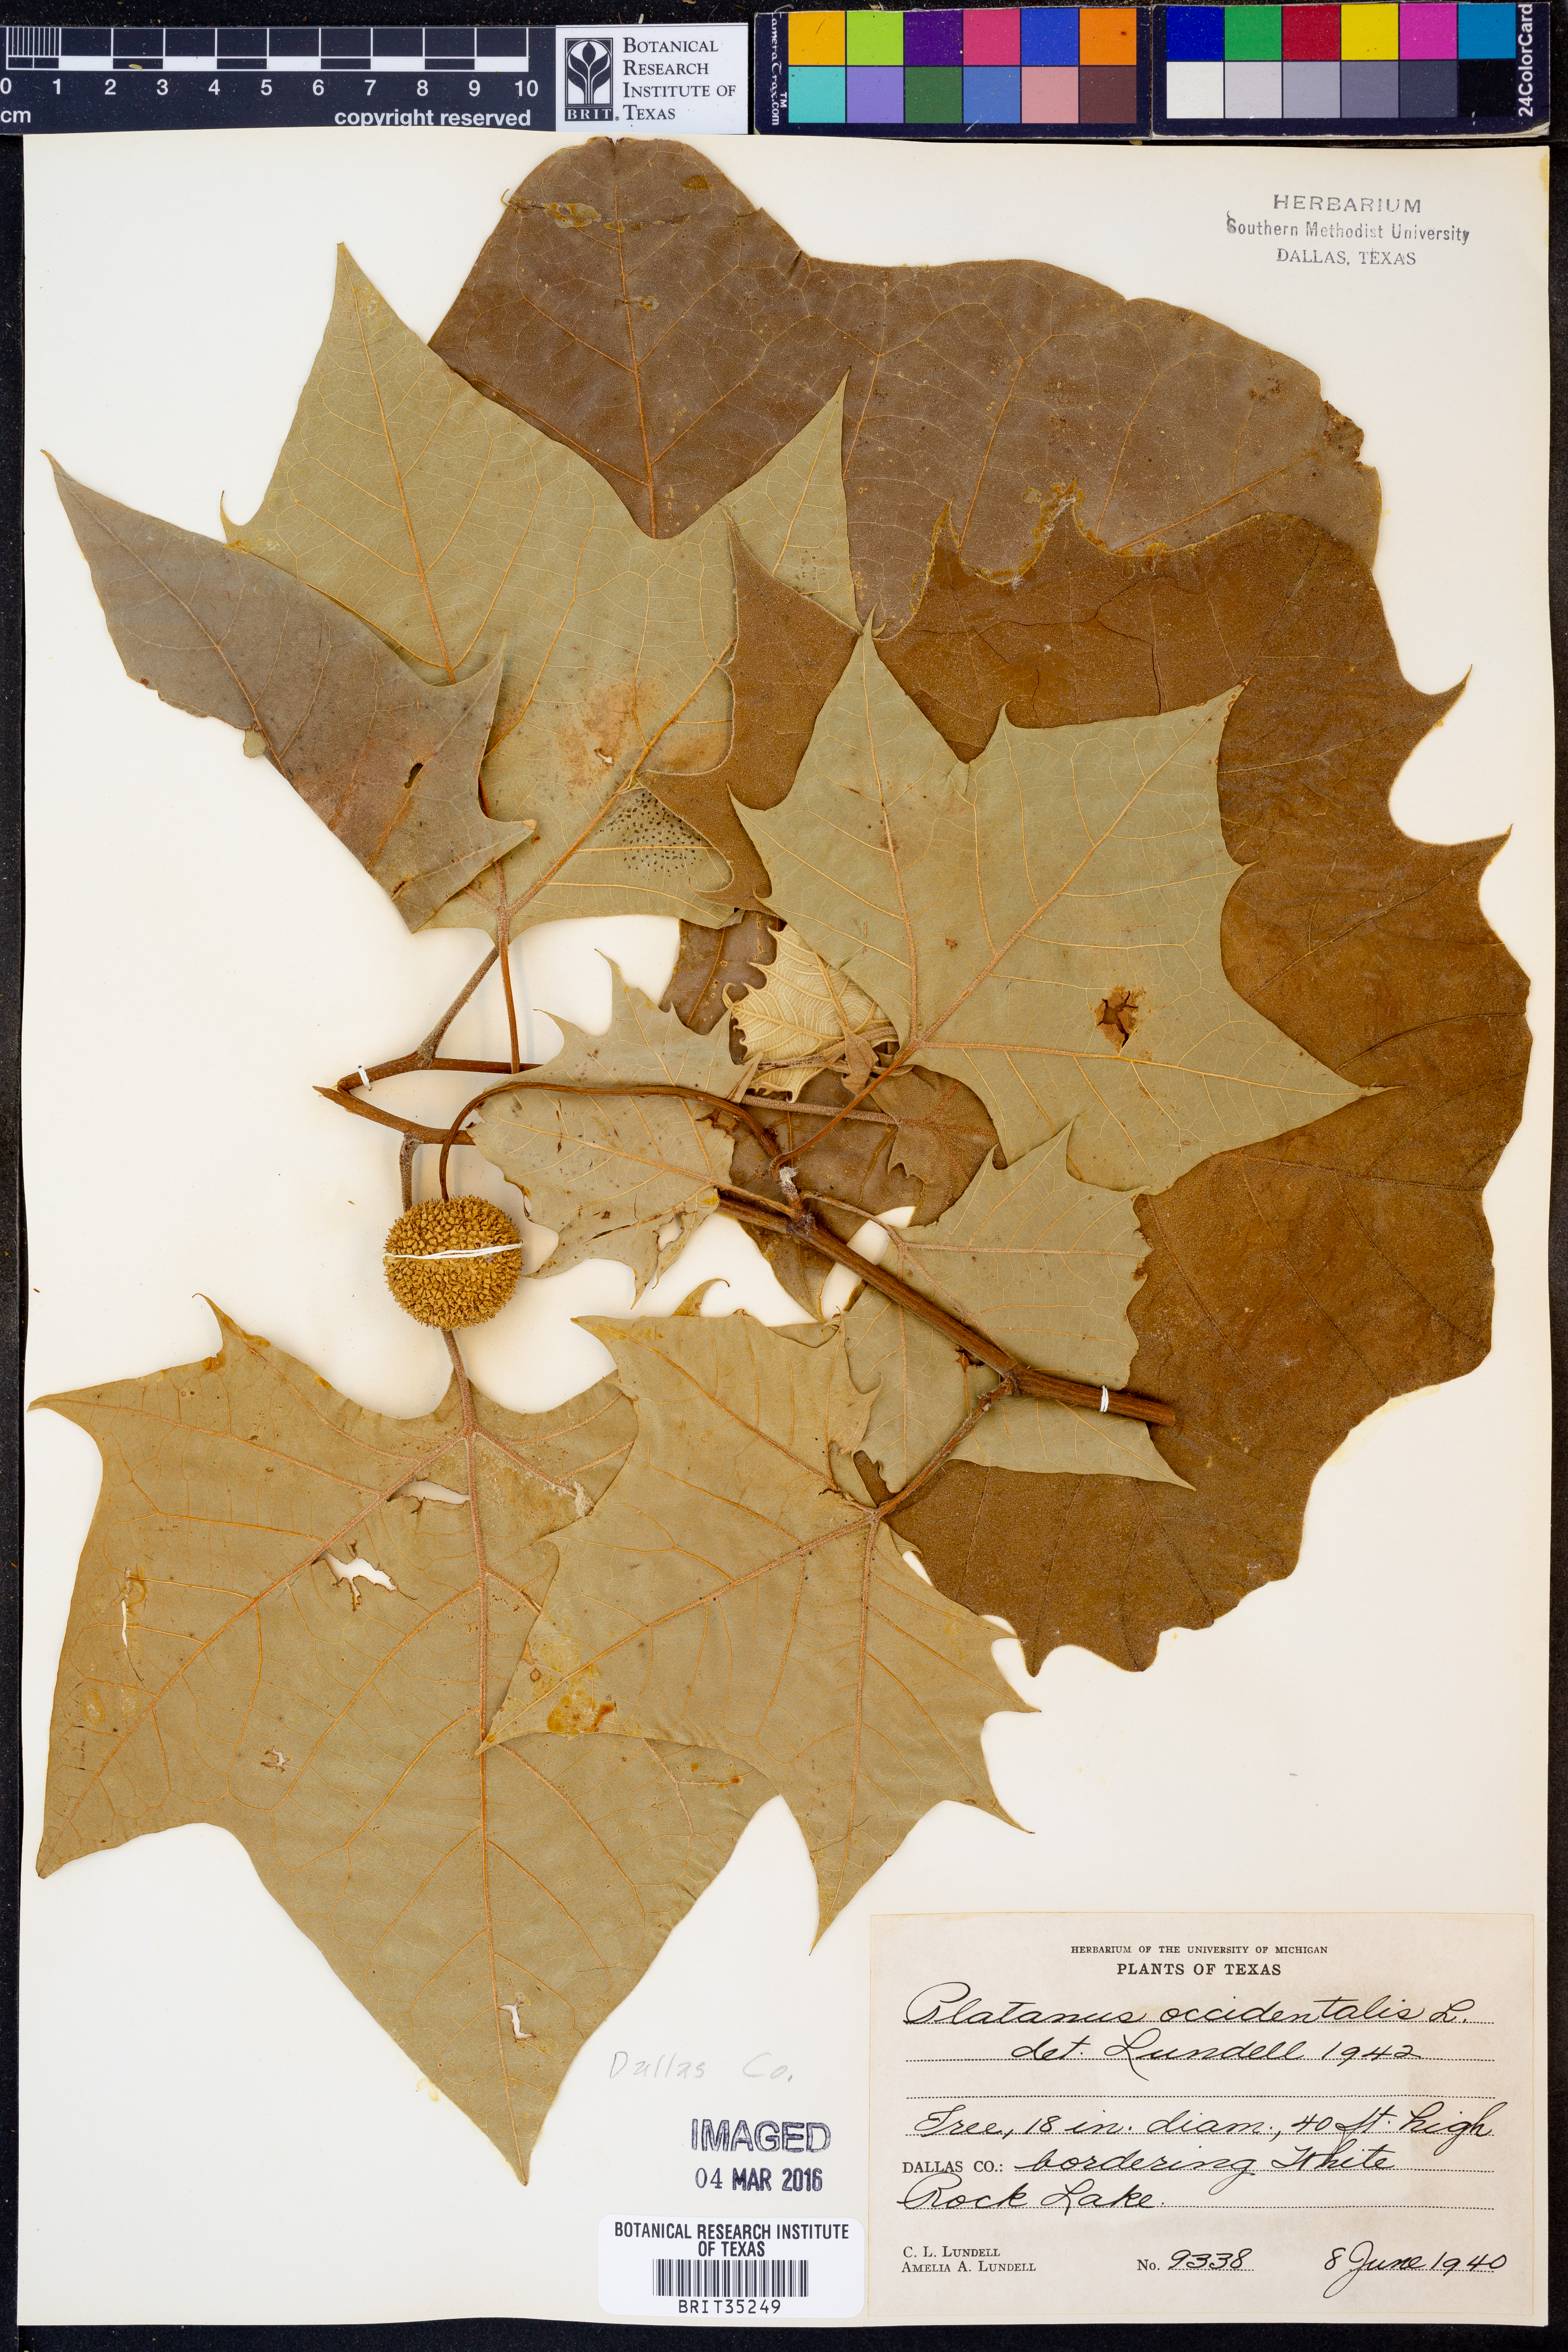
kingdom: Plantae
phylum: Tracheophyta
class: Magnoliopsida
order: Proteales
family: Platanaceae
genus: Platanus
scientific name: Platanus occidentalis
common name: American sycamore
